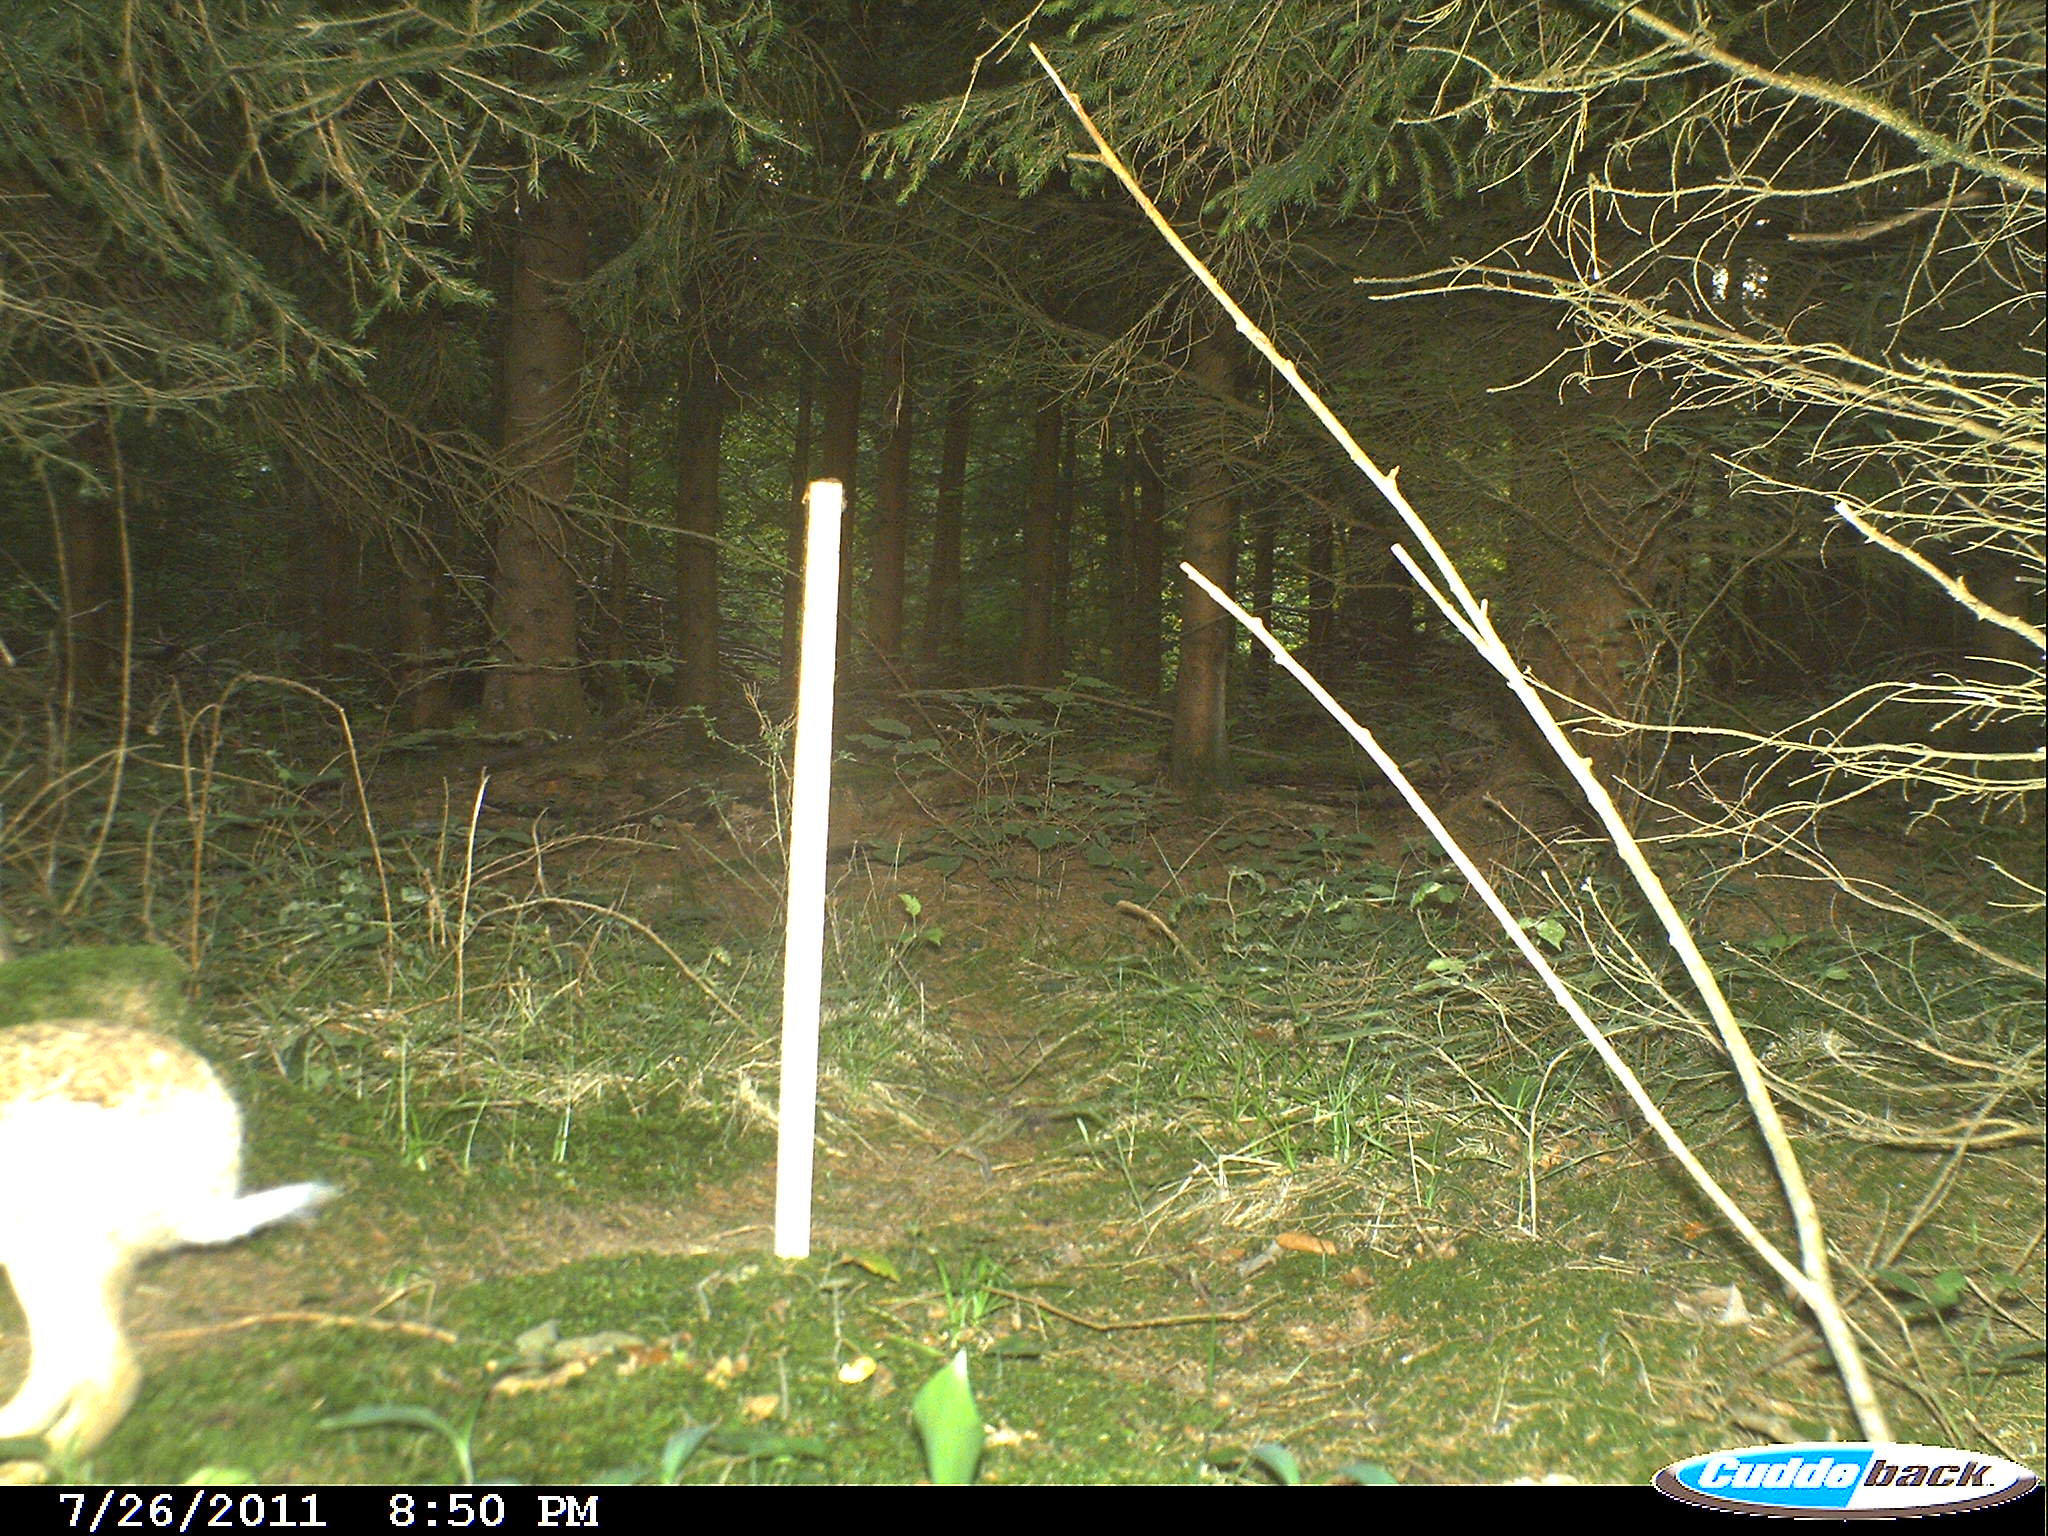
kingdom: Animalia
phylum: Chordata
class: Mammalia
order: Lagomorpha
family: Leporidae
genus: Lepus
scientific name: Lepus europaeus
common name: European hare
